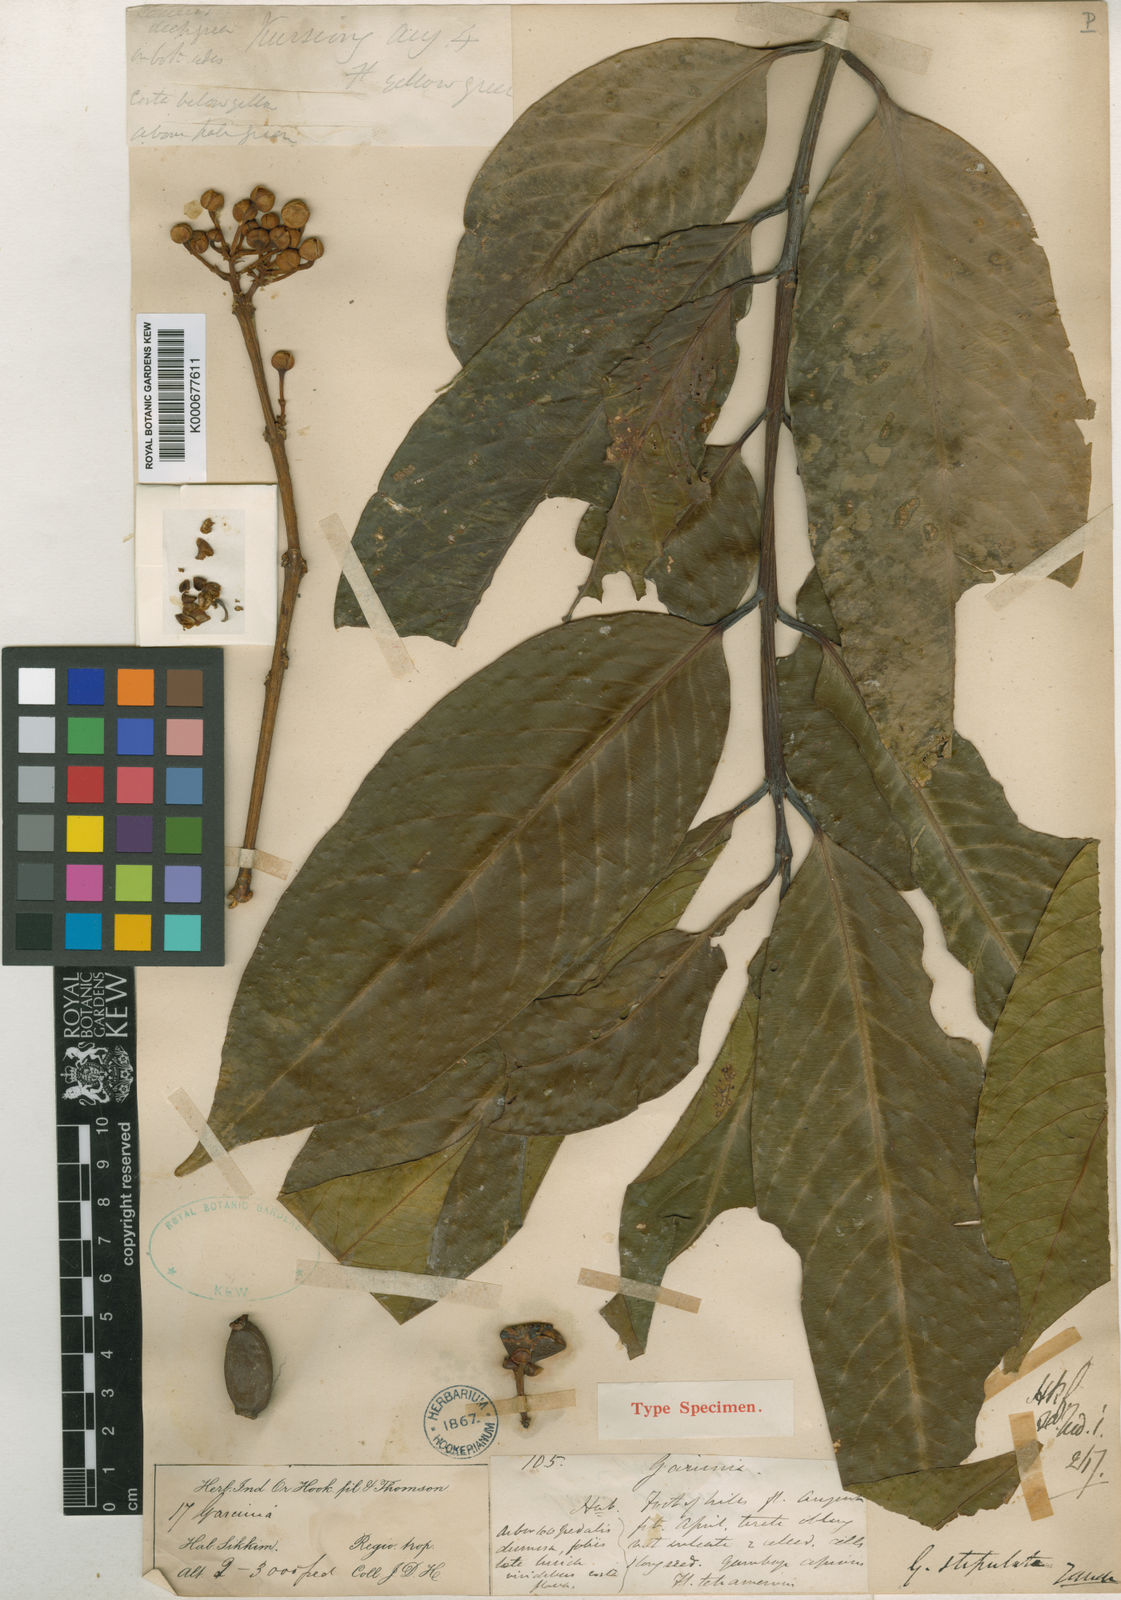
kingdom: Plantae
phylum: Tracheophyta
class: Magnoliopsida
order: Malpighiales
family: Clusiaceae
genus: Garcinia
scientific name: Garcinia stipulata
